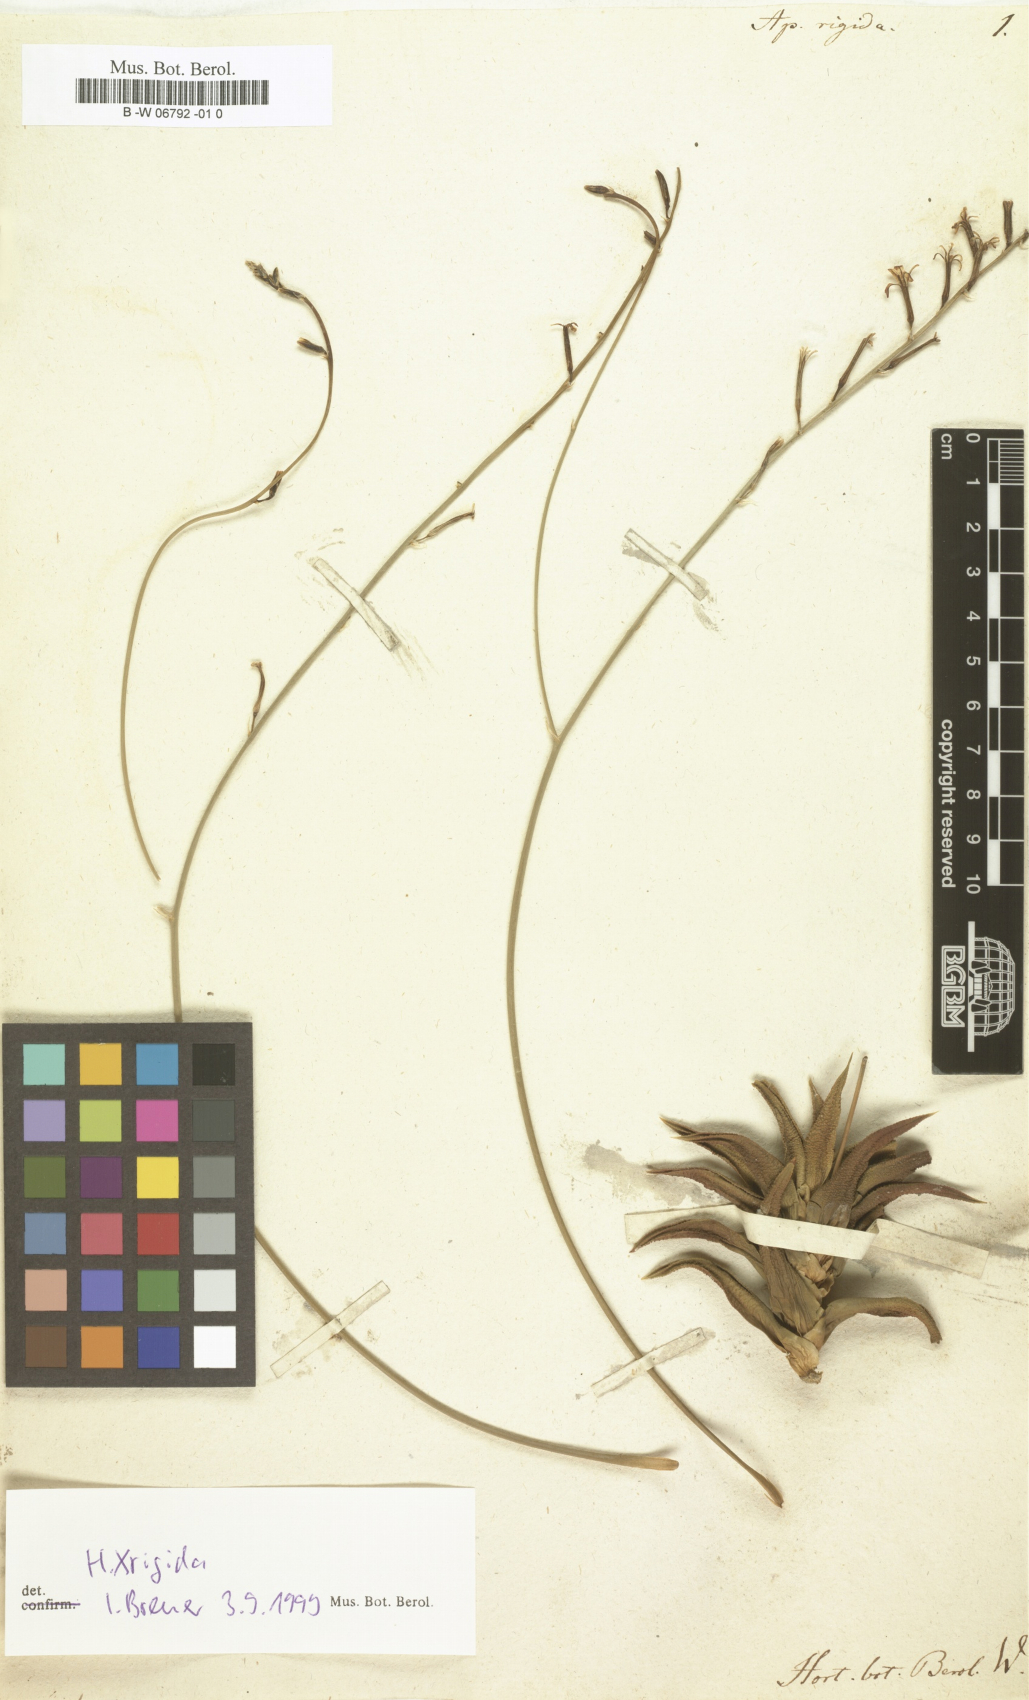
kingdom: Plantae
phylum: Tracheophyta
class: Liliopsida
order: Asparagales
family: Asphodelaceae
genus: Haworthiopsis
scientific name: Haworthiopsis pseudorigida
